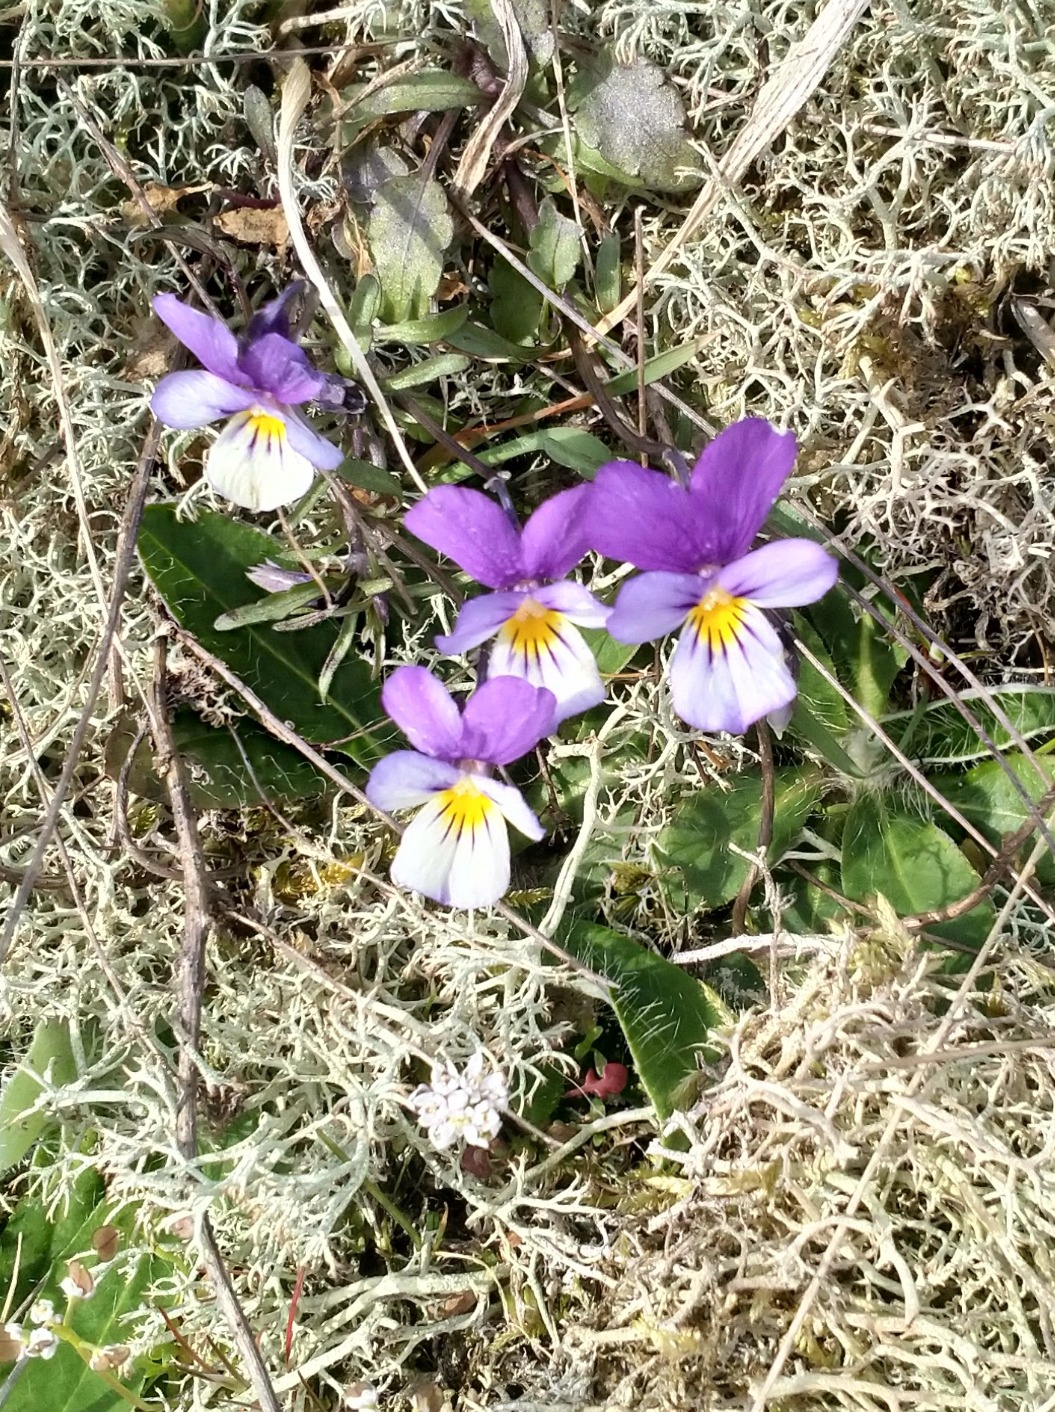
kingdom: Plantae
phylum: Tracheophyta
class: Magnoliopsida
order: Malpighiales
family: Violaceae
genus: Viola
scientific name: Viola tricolor
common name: Stedmoderblomst
